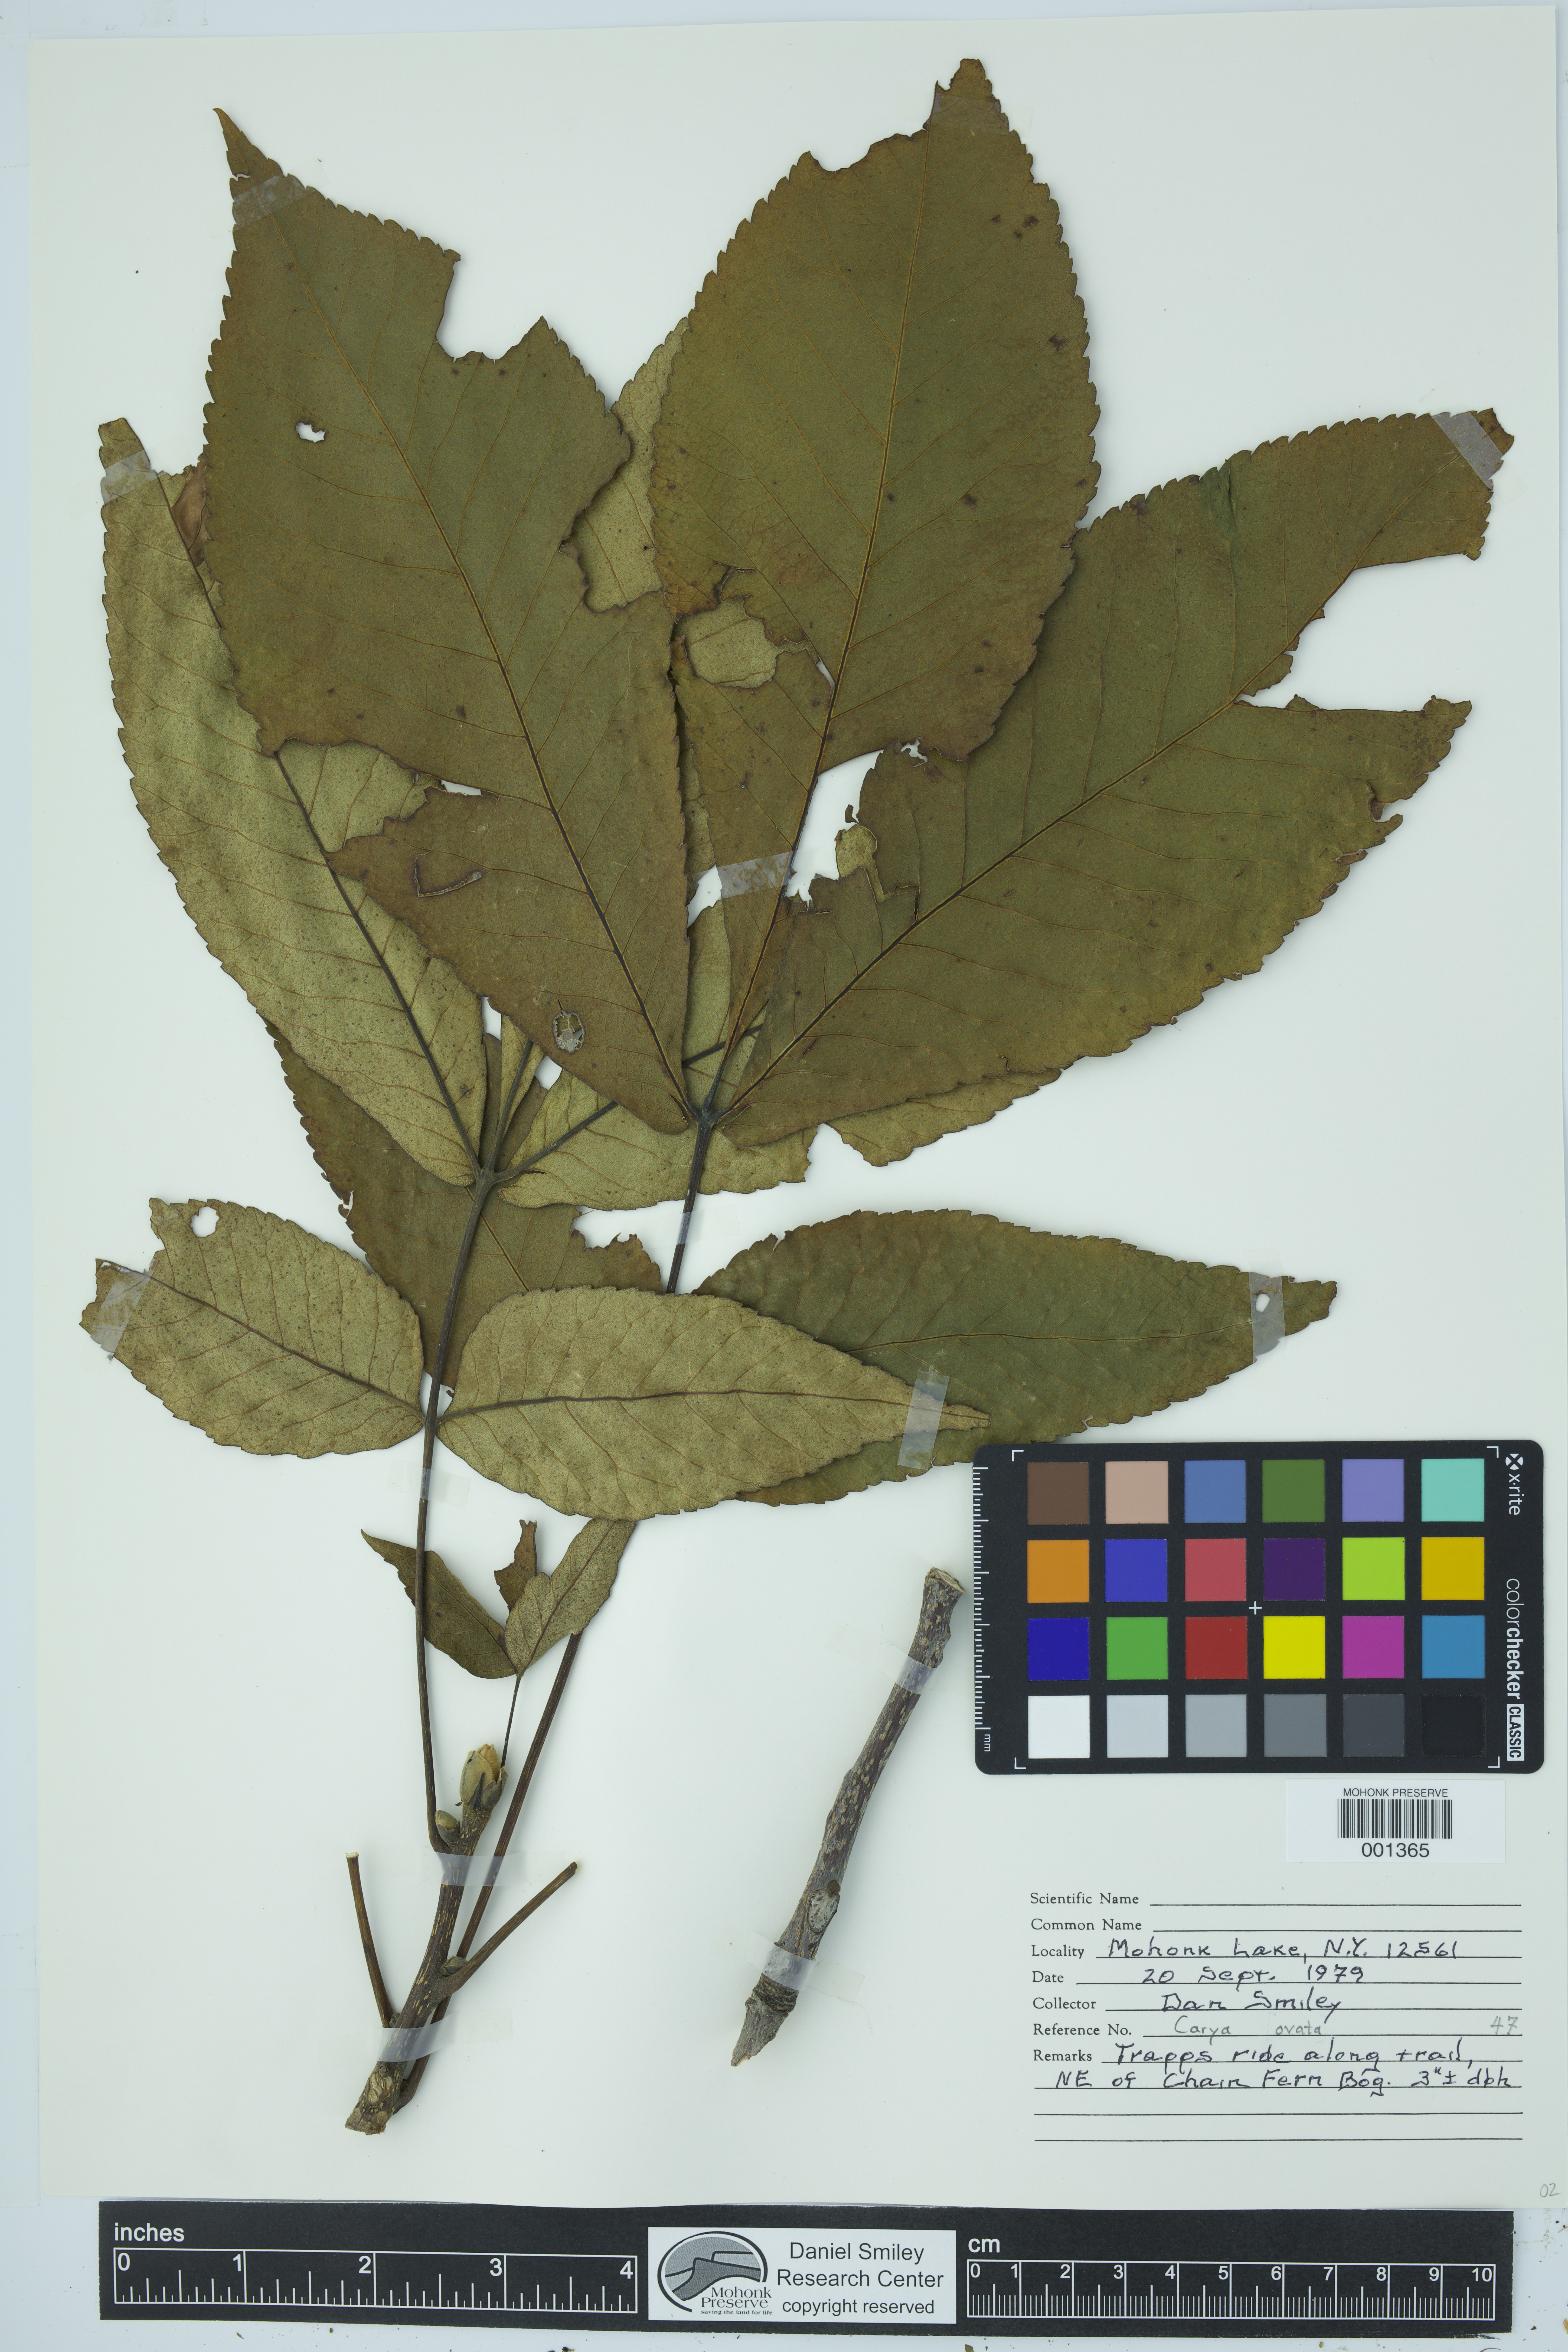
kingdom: Plantae
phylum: Tracheophyta
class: Magnoliopsida
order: Fagales
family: Juglandaceae
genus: Carya
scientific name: Carya ovata
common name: Shagbark hickory
